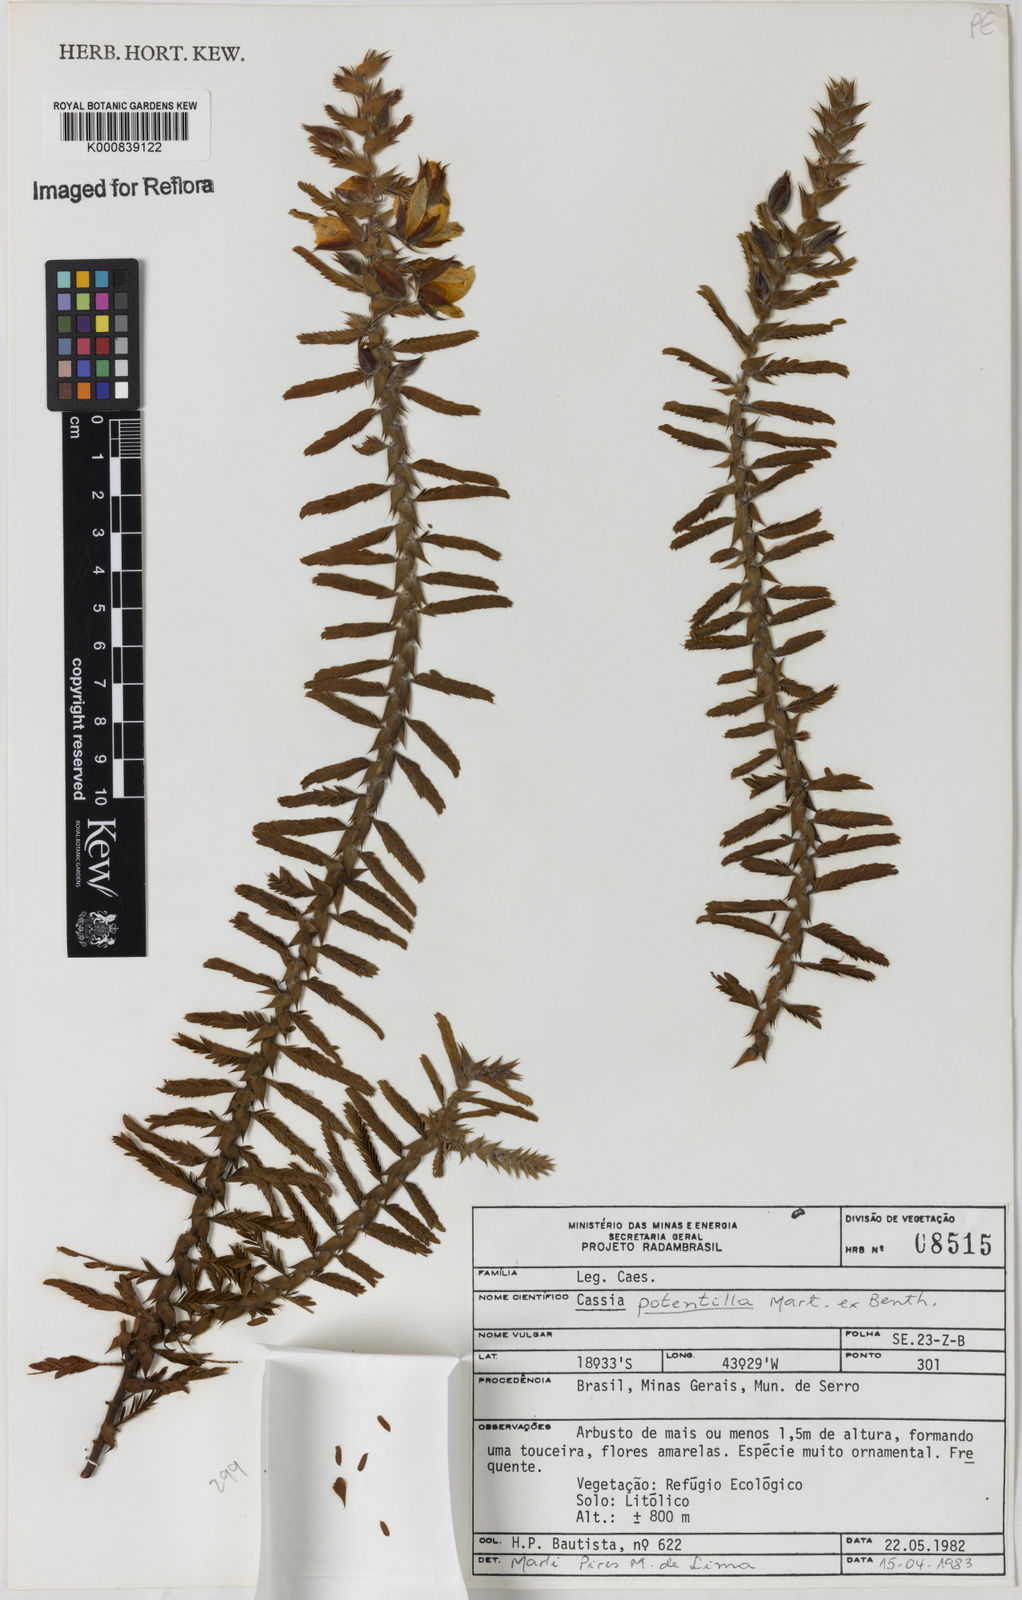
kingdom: Plantae
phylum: Tracheophyta
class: Magnoliopsida
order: Fabales
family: Fabaceae
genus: Chamaecrista
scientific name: Chamaecrista potentilla
